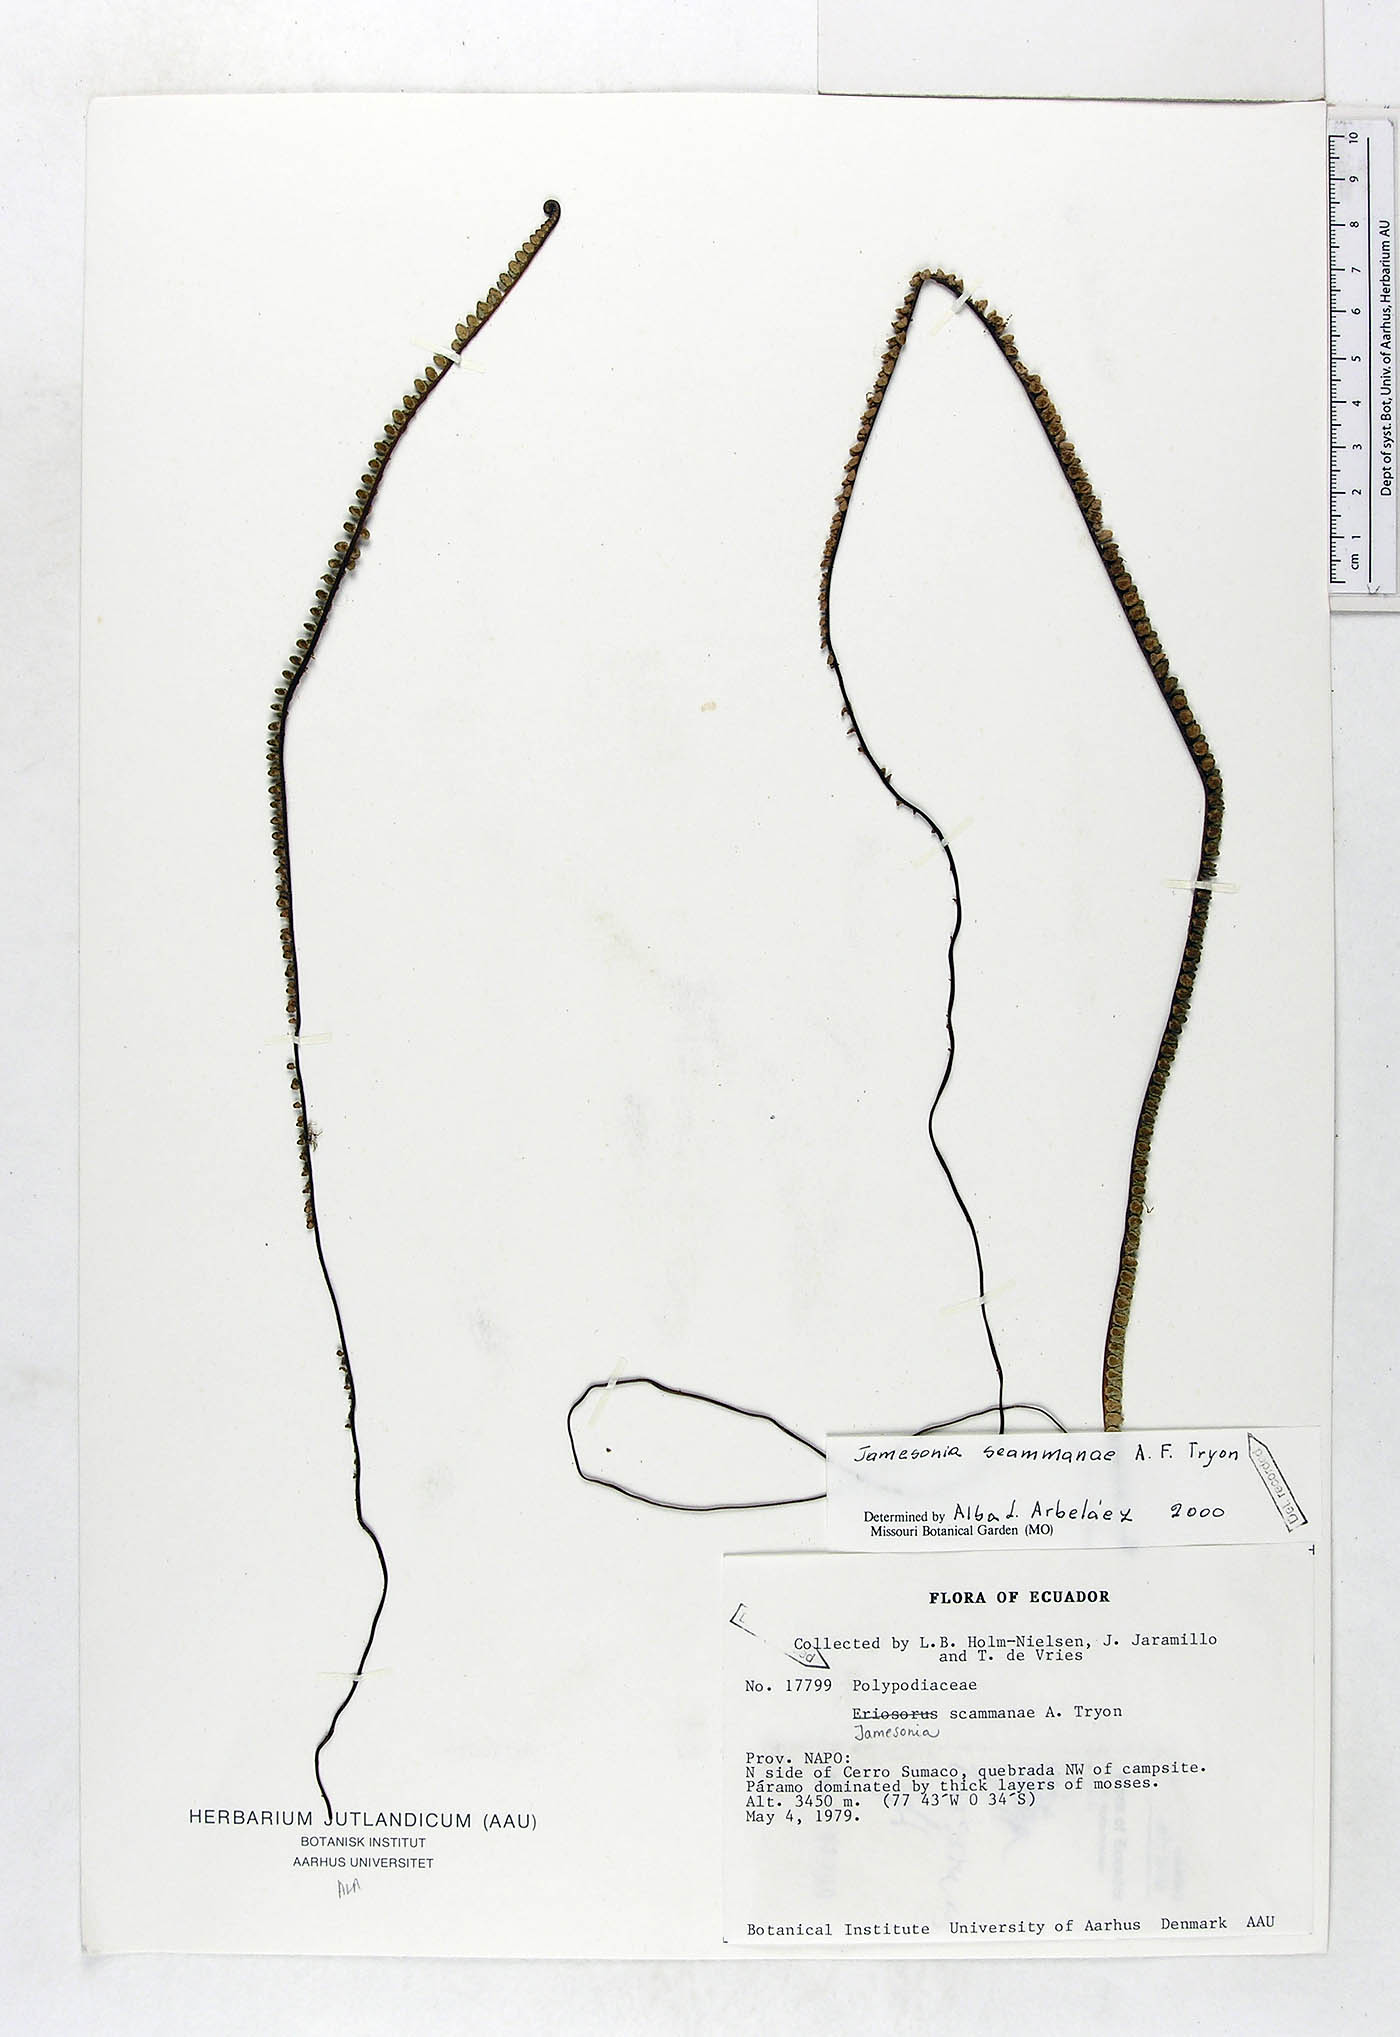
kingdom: Plantae
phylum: Tracheophyta
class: Polypodiopsida
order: Polypodiales
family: Pteridaceae
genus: Jamesonia
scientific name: Jamesonia scammanae
